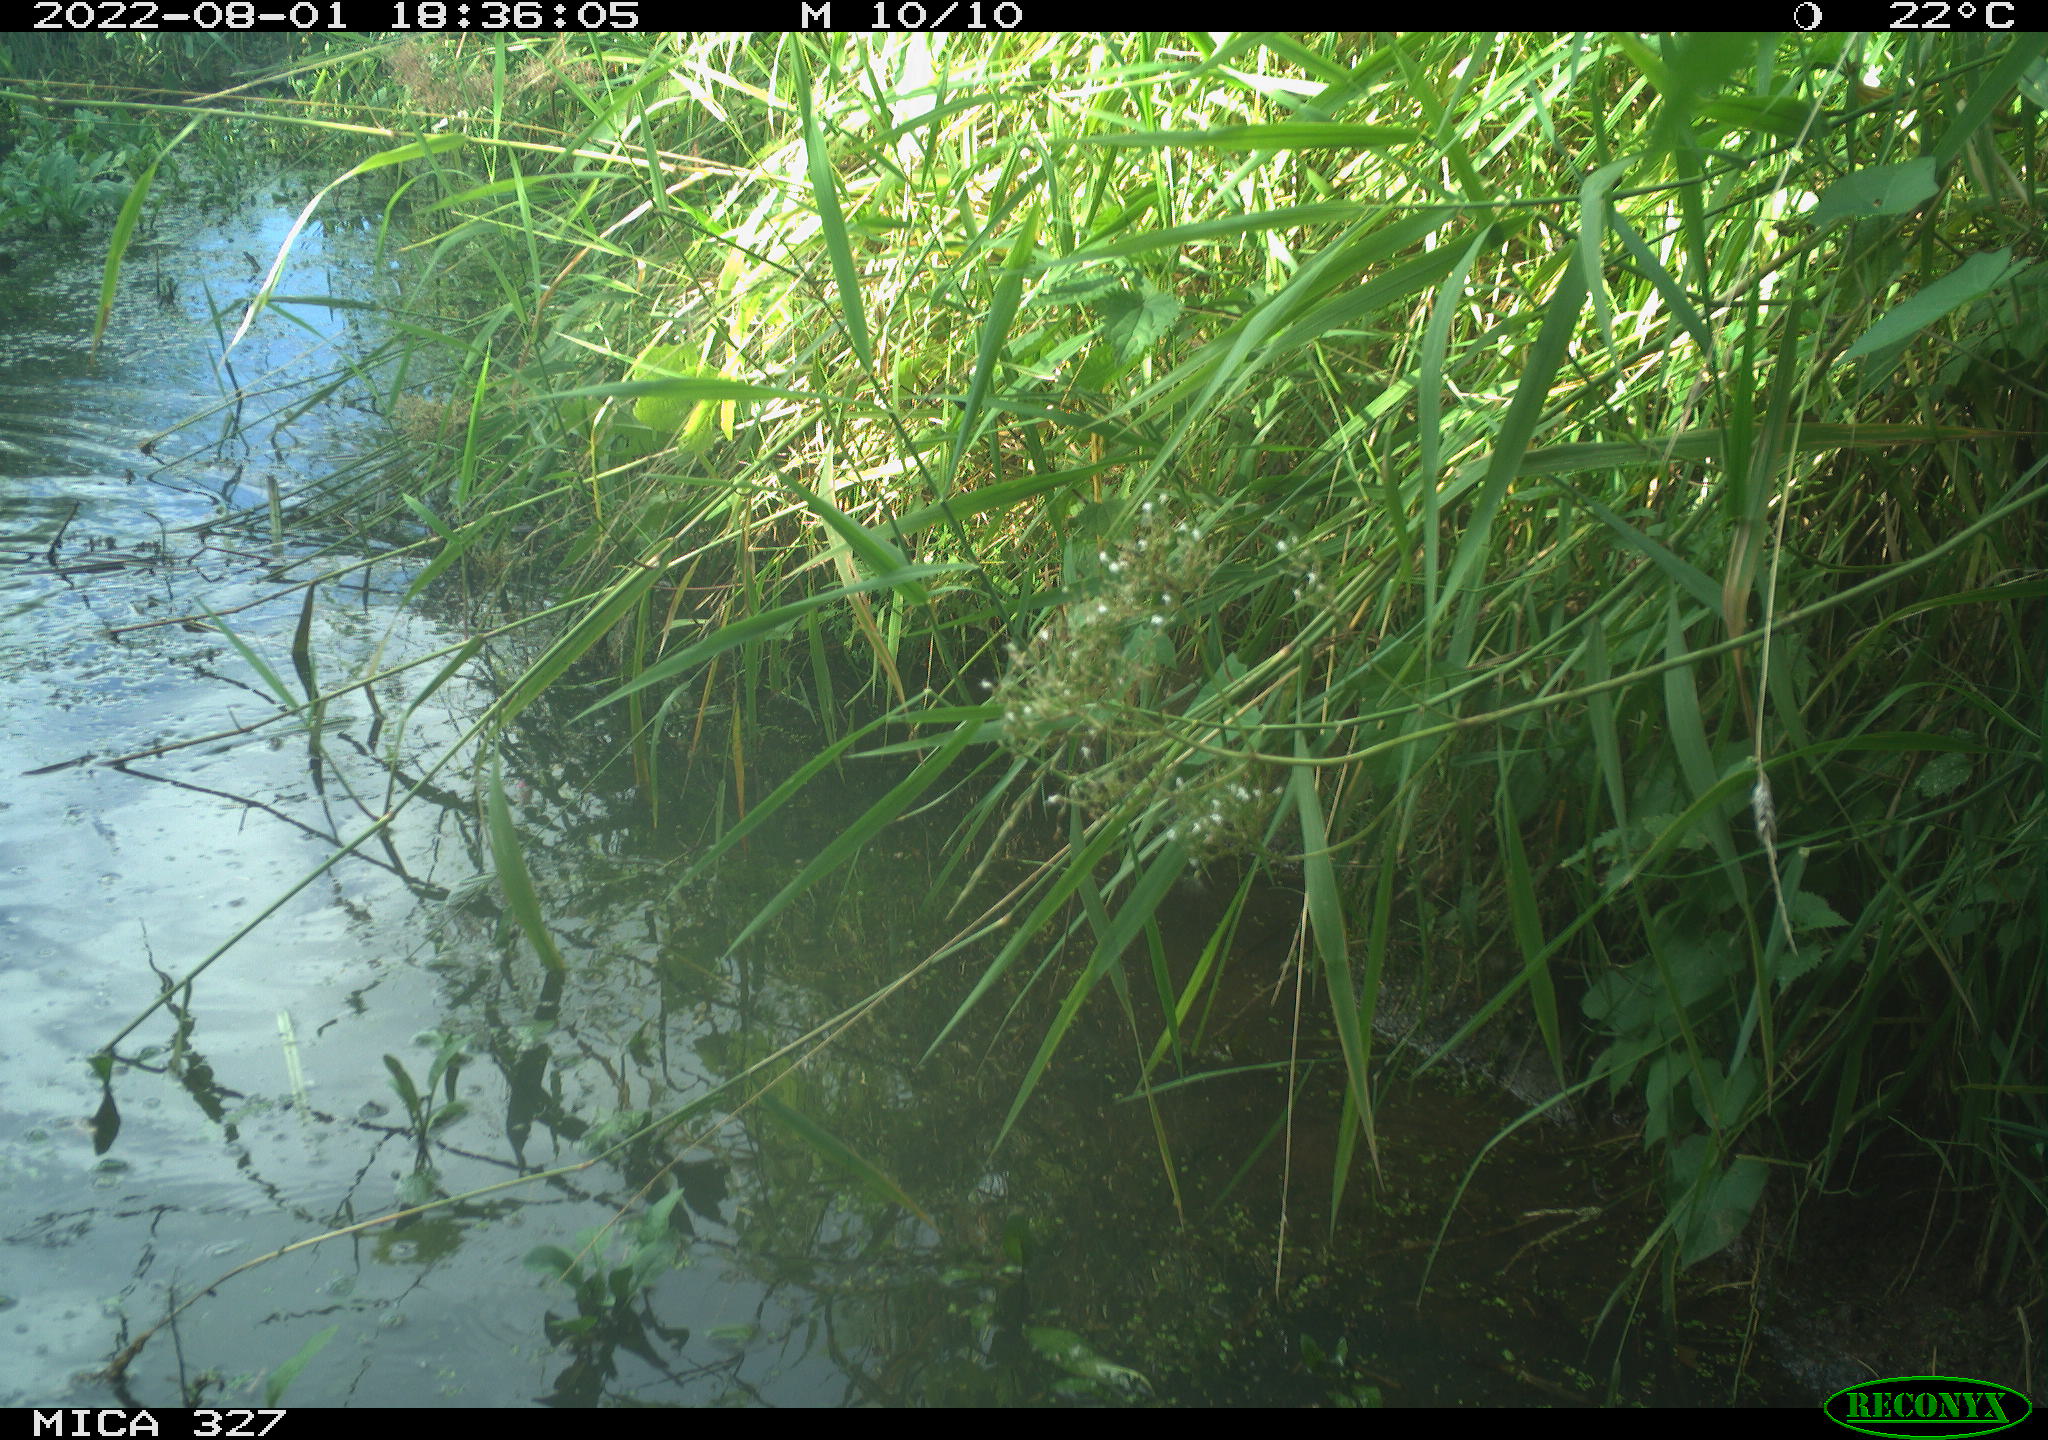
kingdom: Animalia
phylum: Chordata
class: Aves
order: Gruiformes
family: Rallidae
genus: Gallinula
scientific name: Gallinula chloropus
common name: Common moorhen
